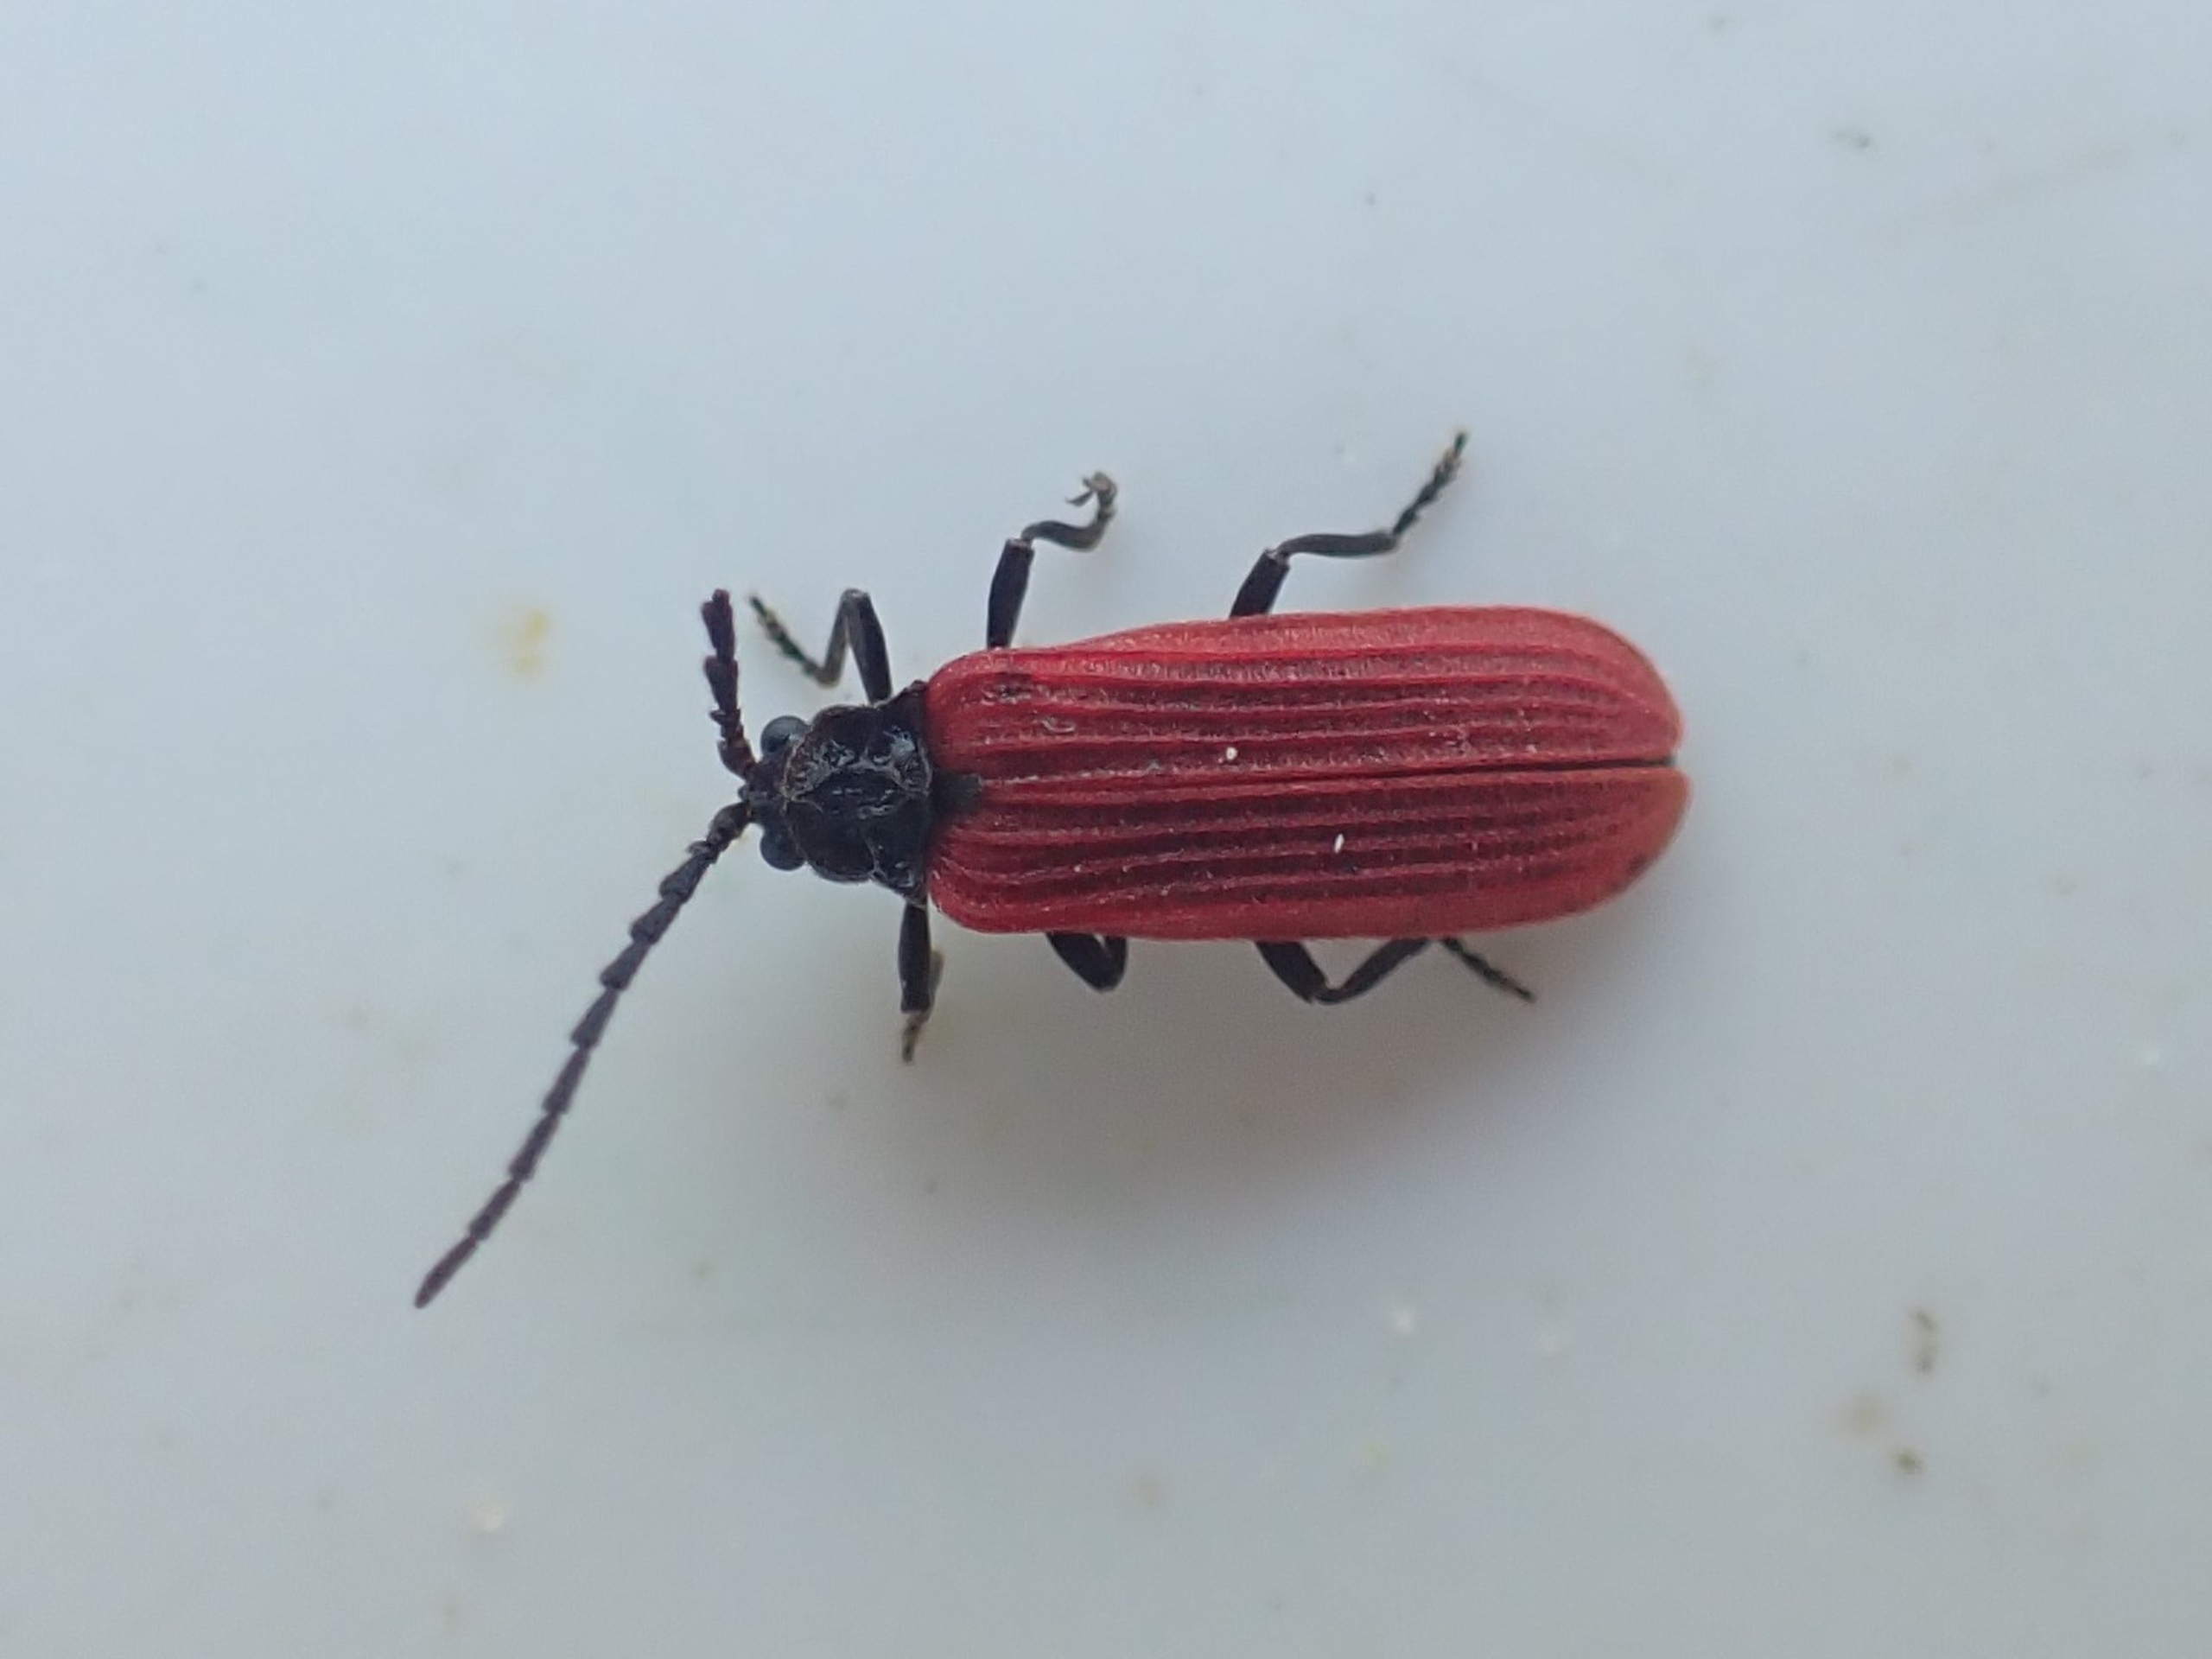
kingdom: Animalia
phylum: Arthropoda
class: Insecta
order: Coleoptera
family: Lycidae
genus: Pyropterus
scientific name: Pyropterus nigroruber
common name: Sortbrystet maskebille
